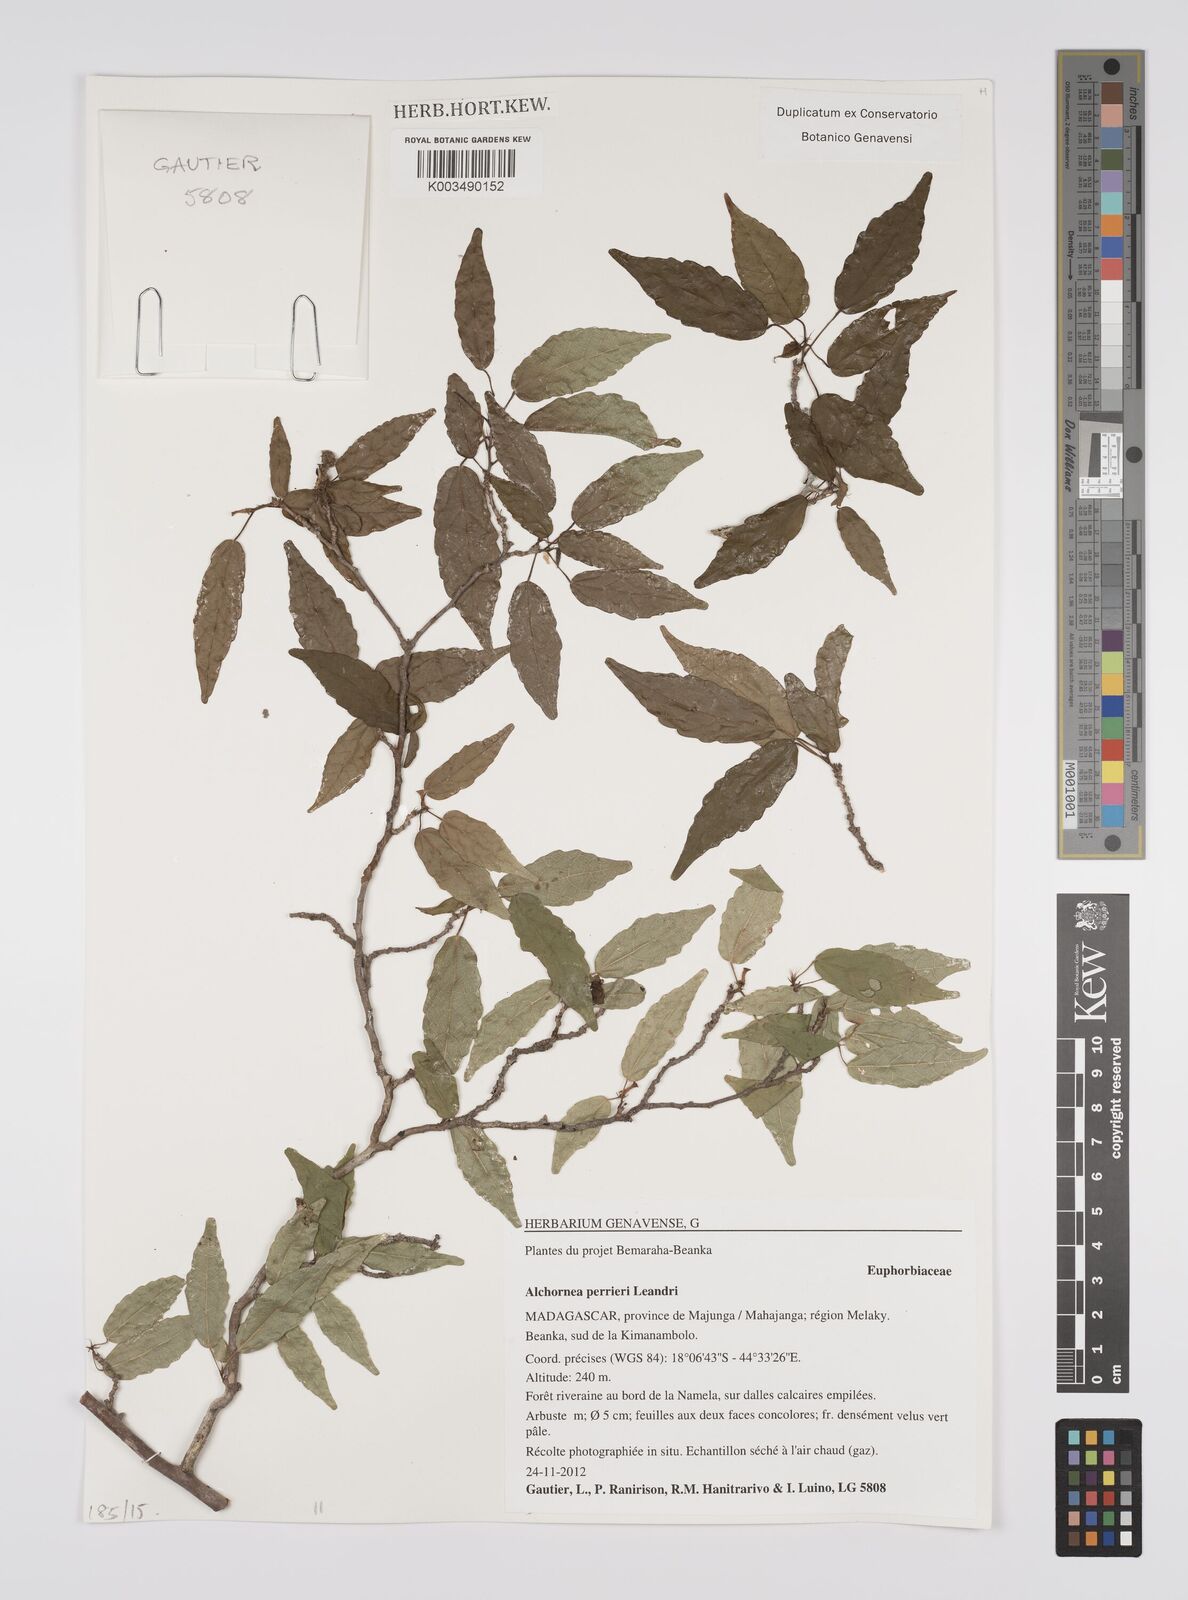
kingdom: Plantae
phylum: Tracheophyta
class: Magnoliopsida
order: Malpighiales
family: Euphorbiaceae
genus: Alchornea
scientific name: Alchornea perrieri
